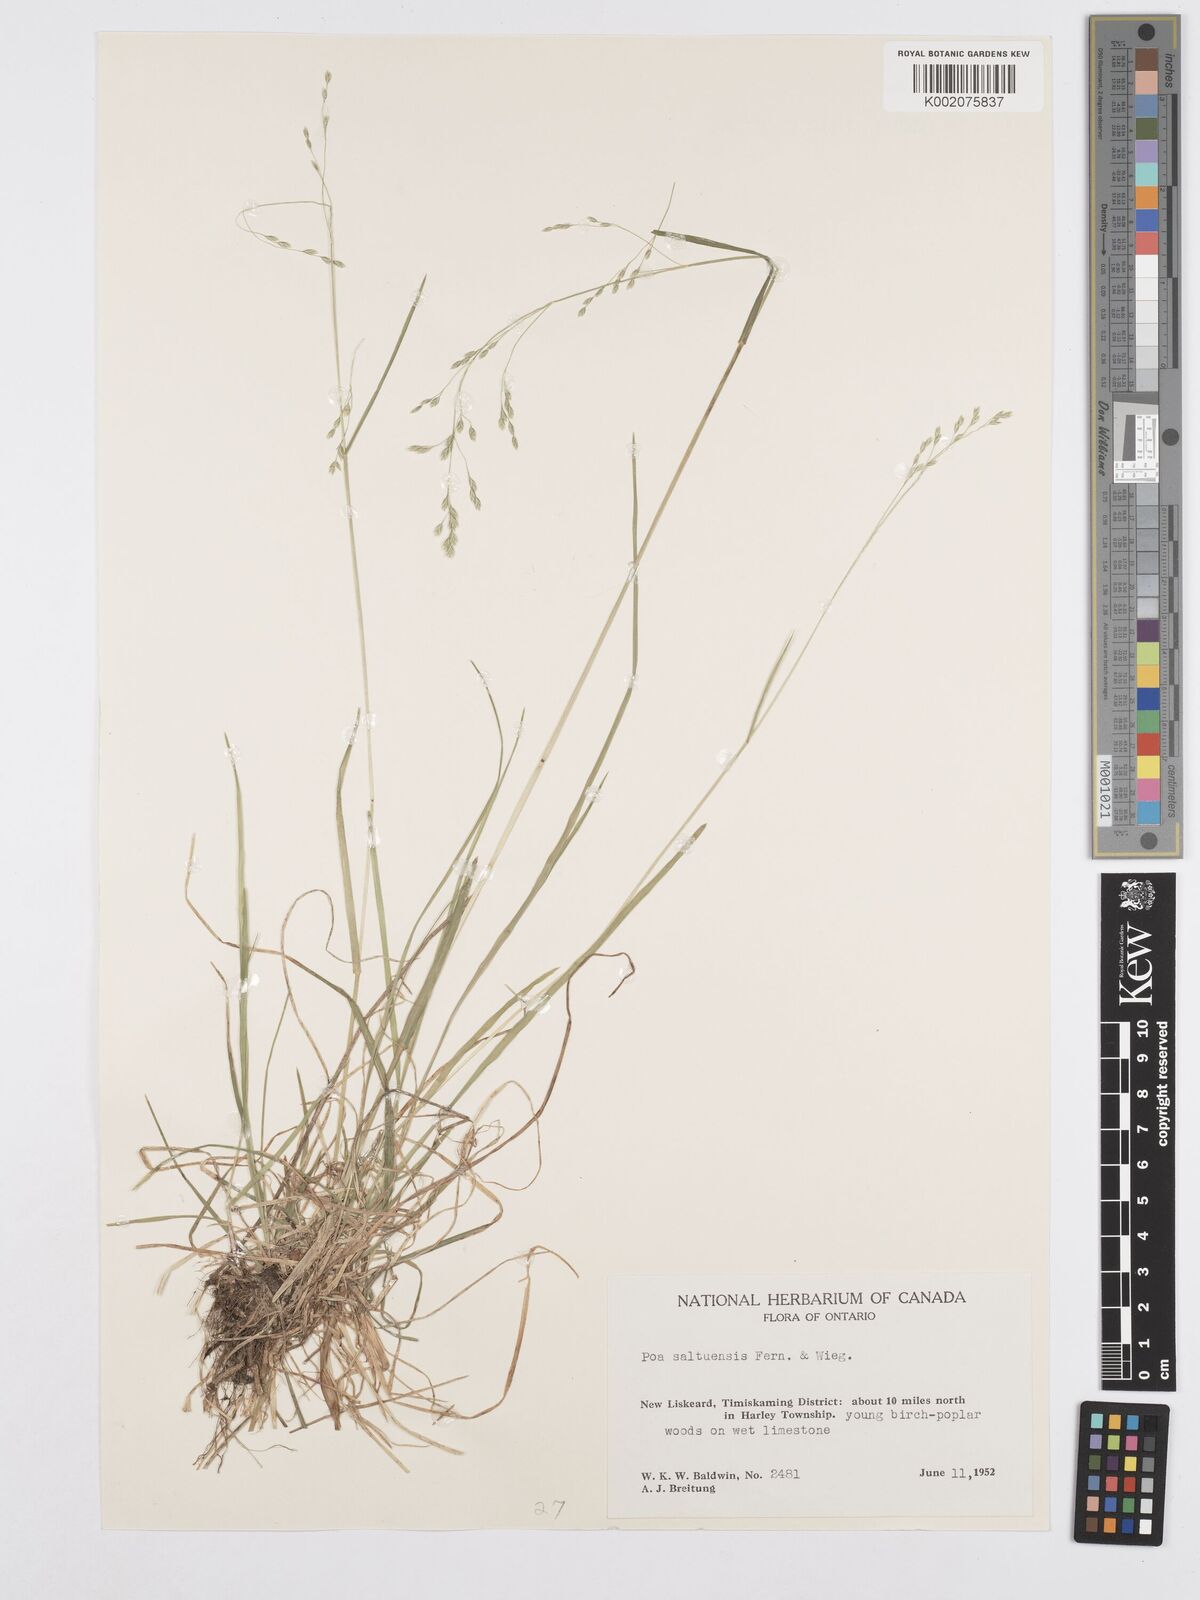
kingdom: Plantae
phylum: Tracheophyta
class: Liliopsida
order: Poales
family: Poaceae
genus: Poa
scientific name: Poa saltuensis
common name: Bushy pasture speargrass
